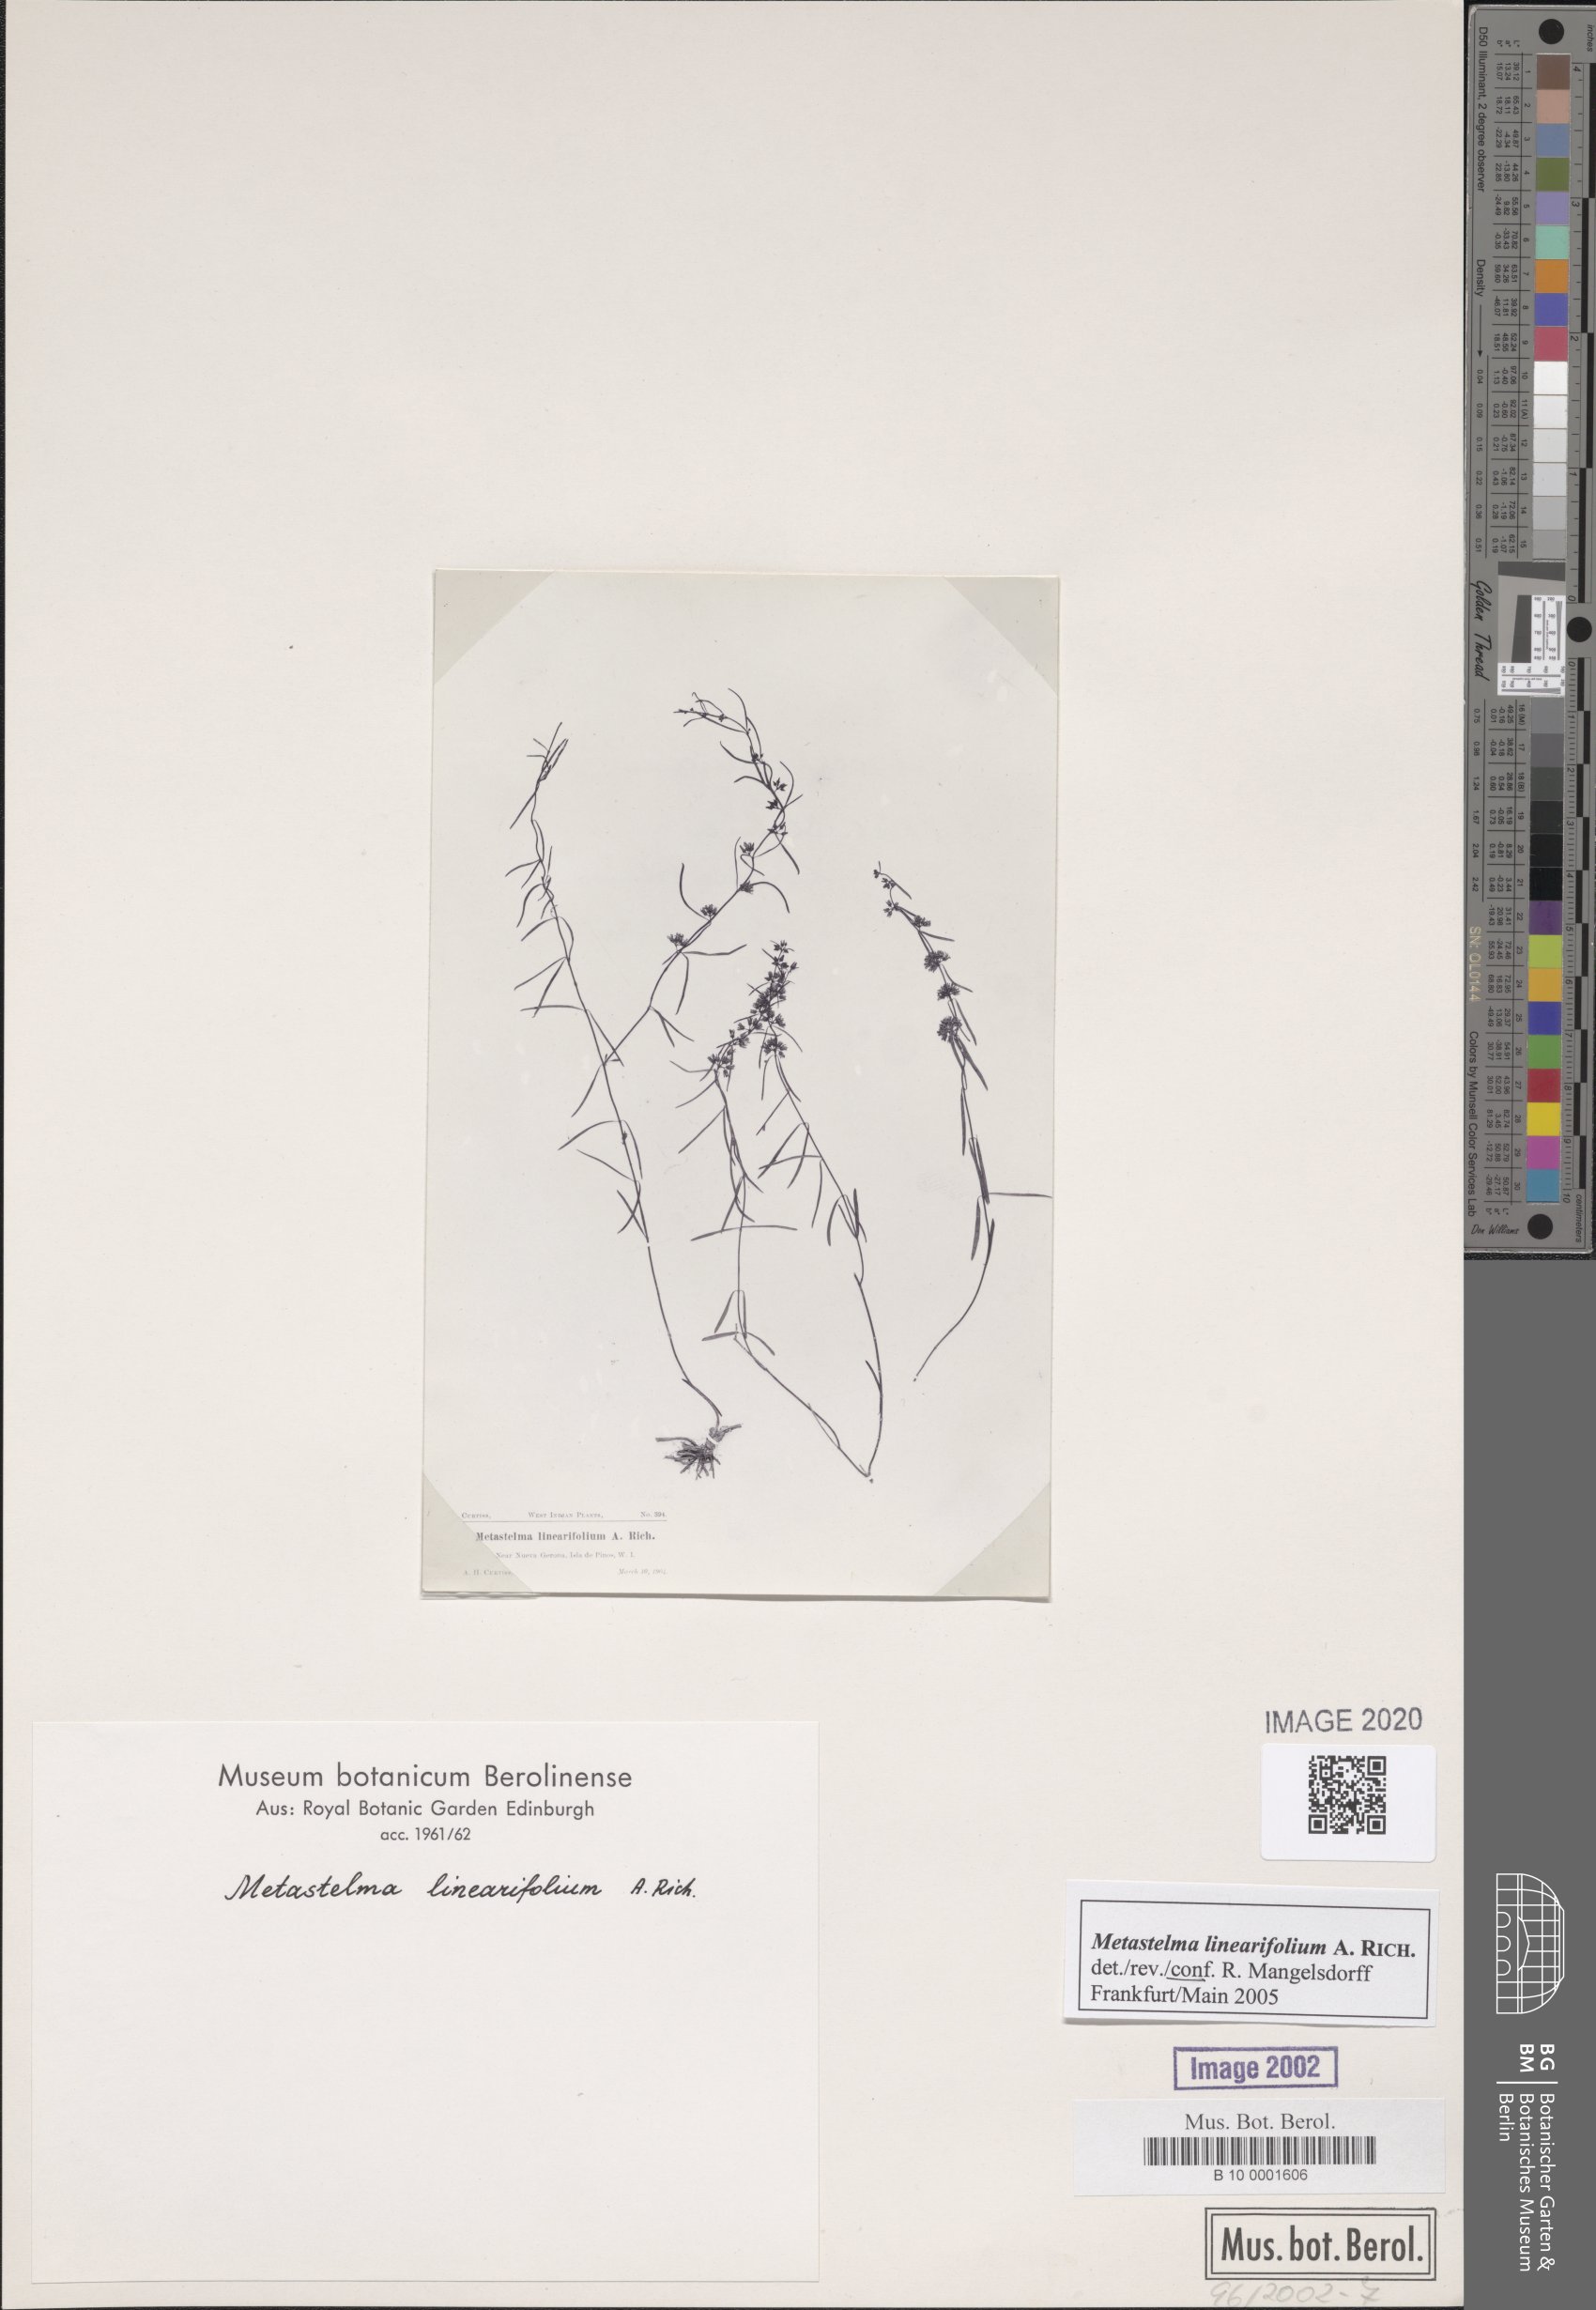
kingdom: Plantae
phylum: Tracheophyta
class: Magnoliopsida
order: Gentianales
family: Apocynaceae
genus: Metastelma
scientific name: Metastelma linearifolium
